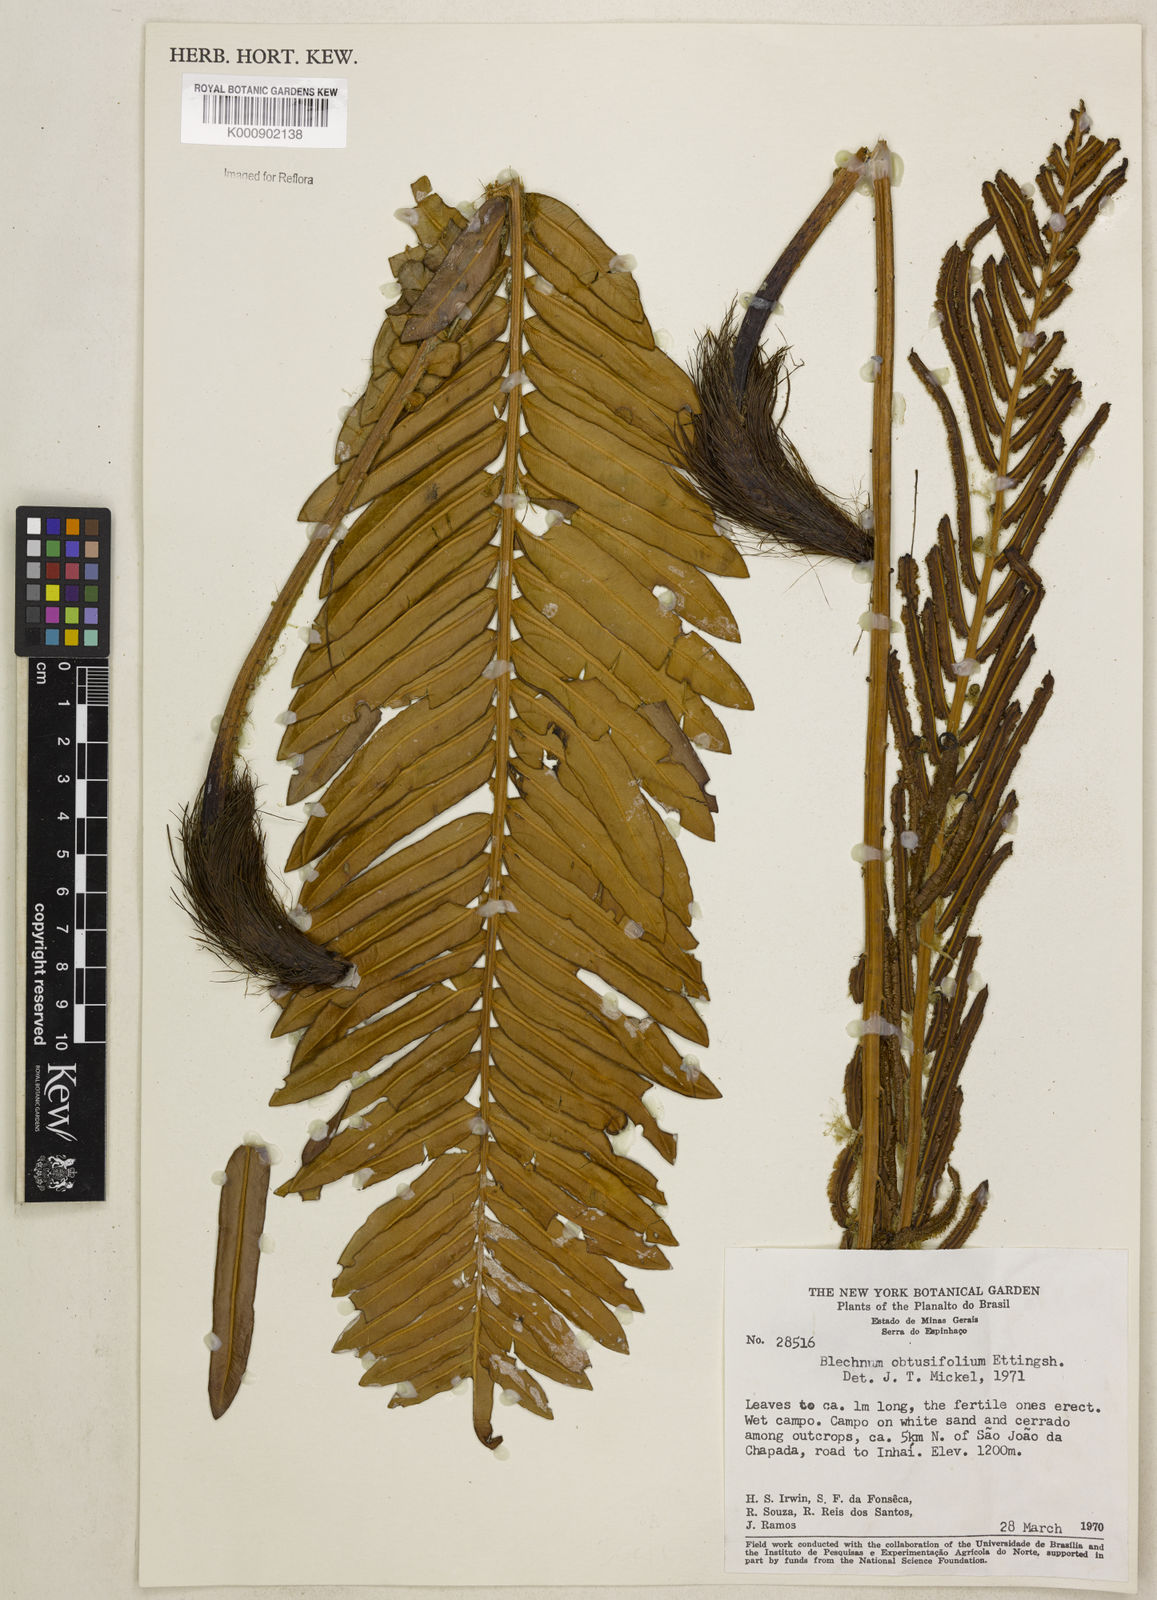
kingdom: Plantae
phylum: Tracheophyta
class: Polypodiopsida
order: Polypodiales
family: Blechnaceae
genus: Lomariocycas
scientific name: Lomariocycas obtusifolia
